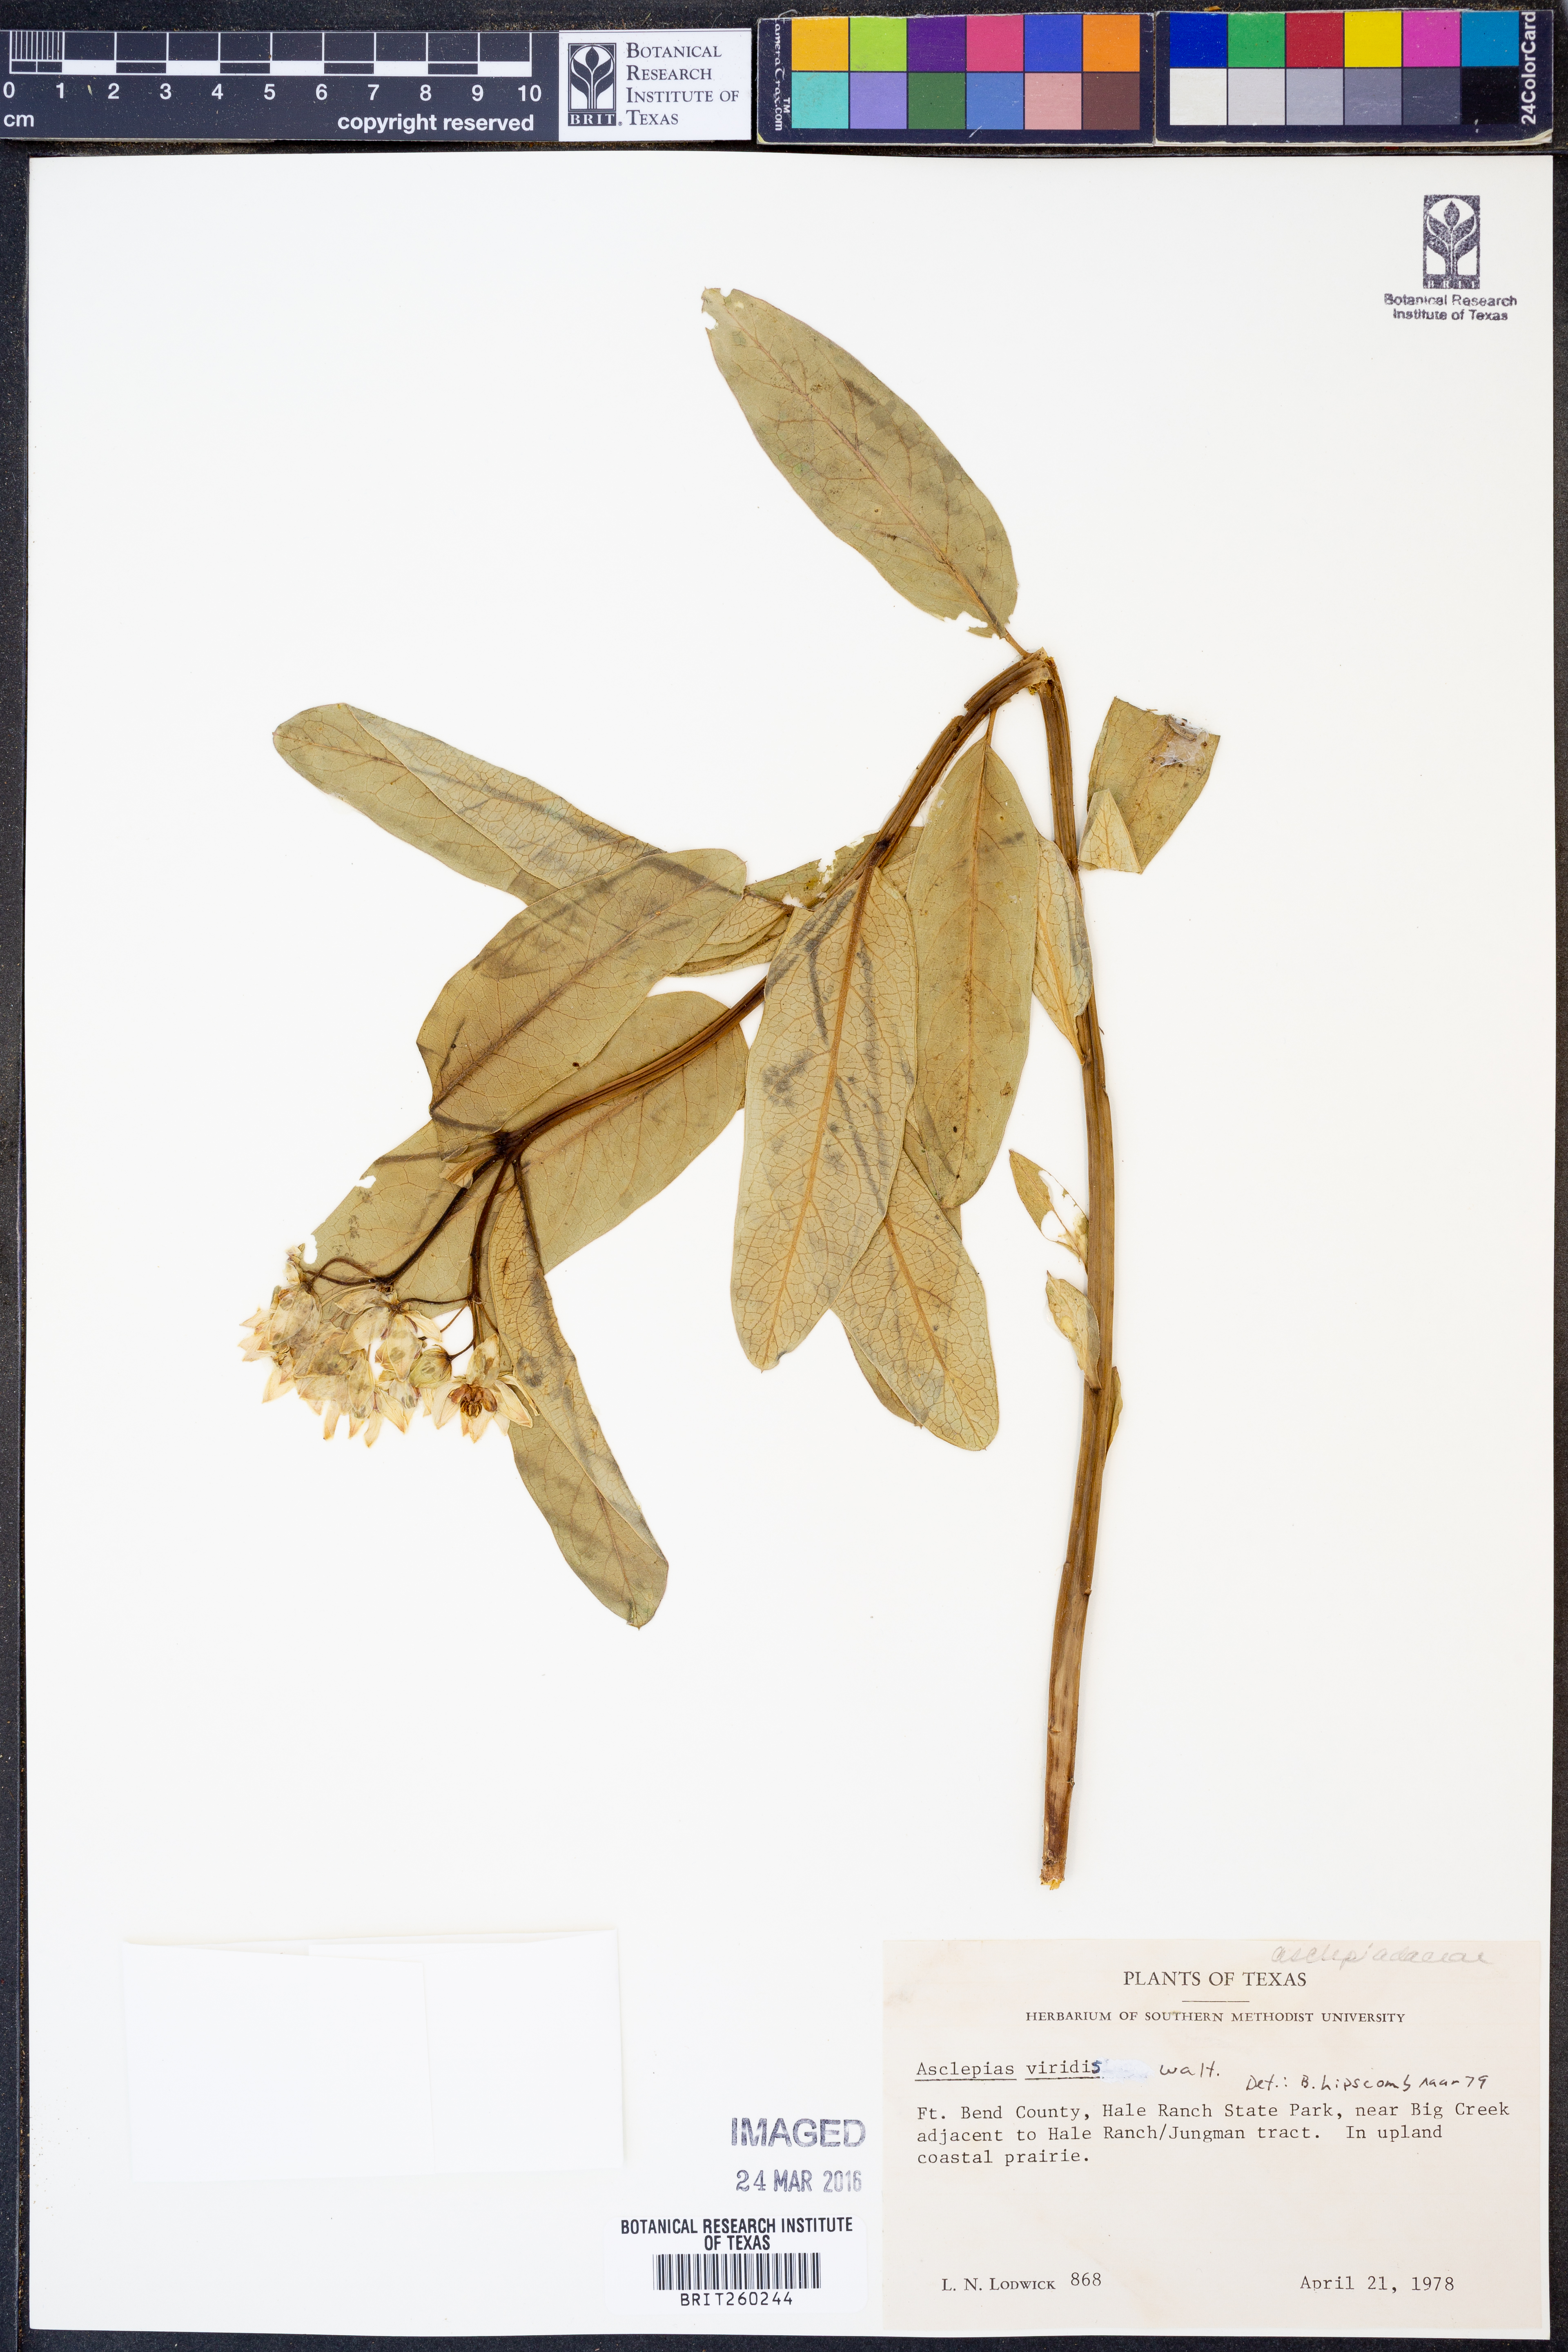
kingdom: Plantae
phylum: Tracheophyta
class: Magnoliopsida
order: Gentianales
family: Apocynaceae
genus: Asclepias
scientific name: Asclepias viridis
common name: Antelope-horns
